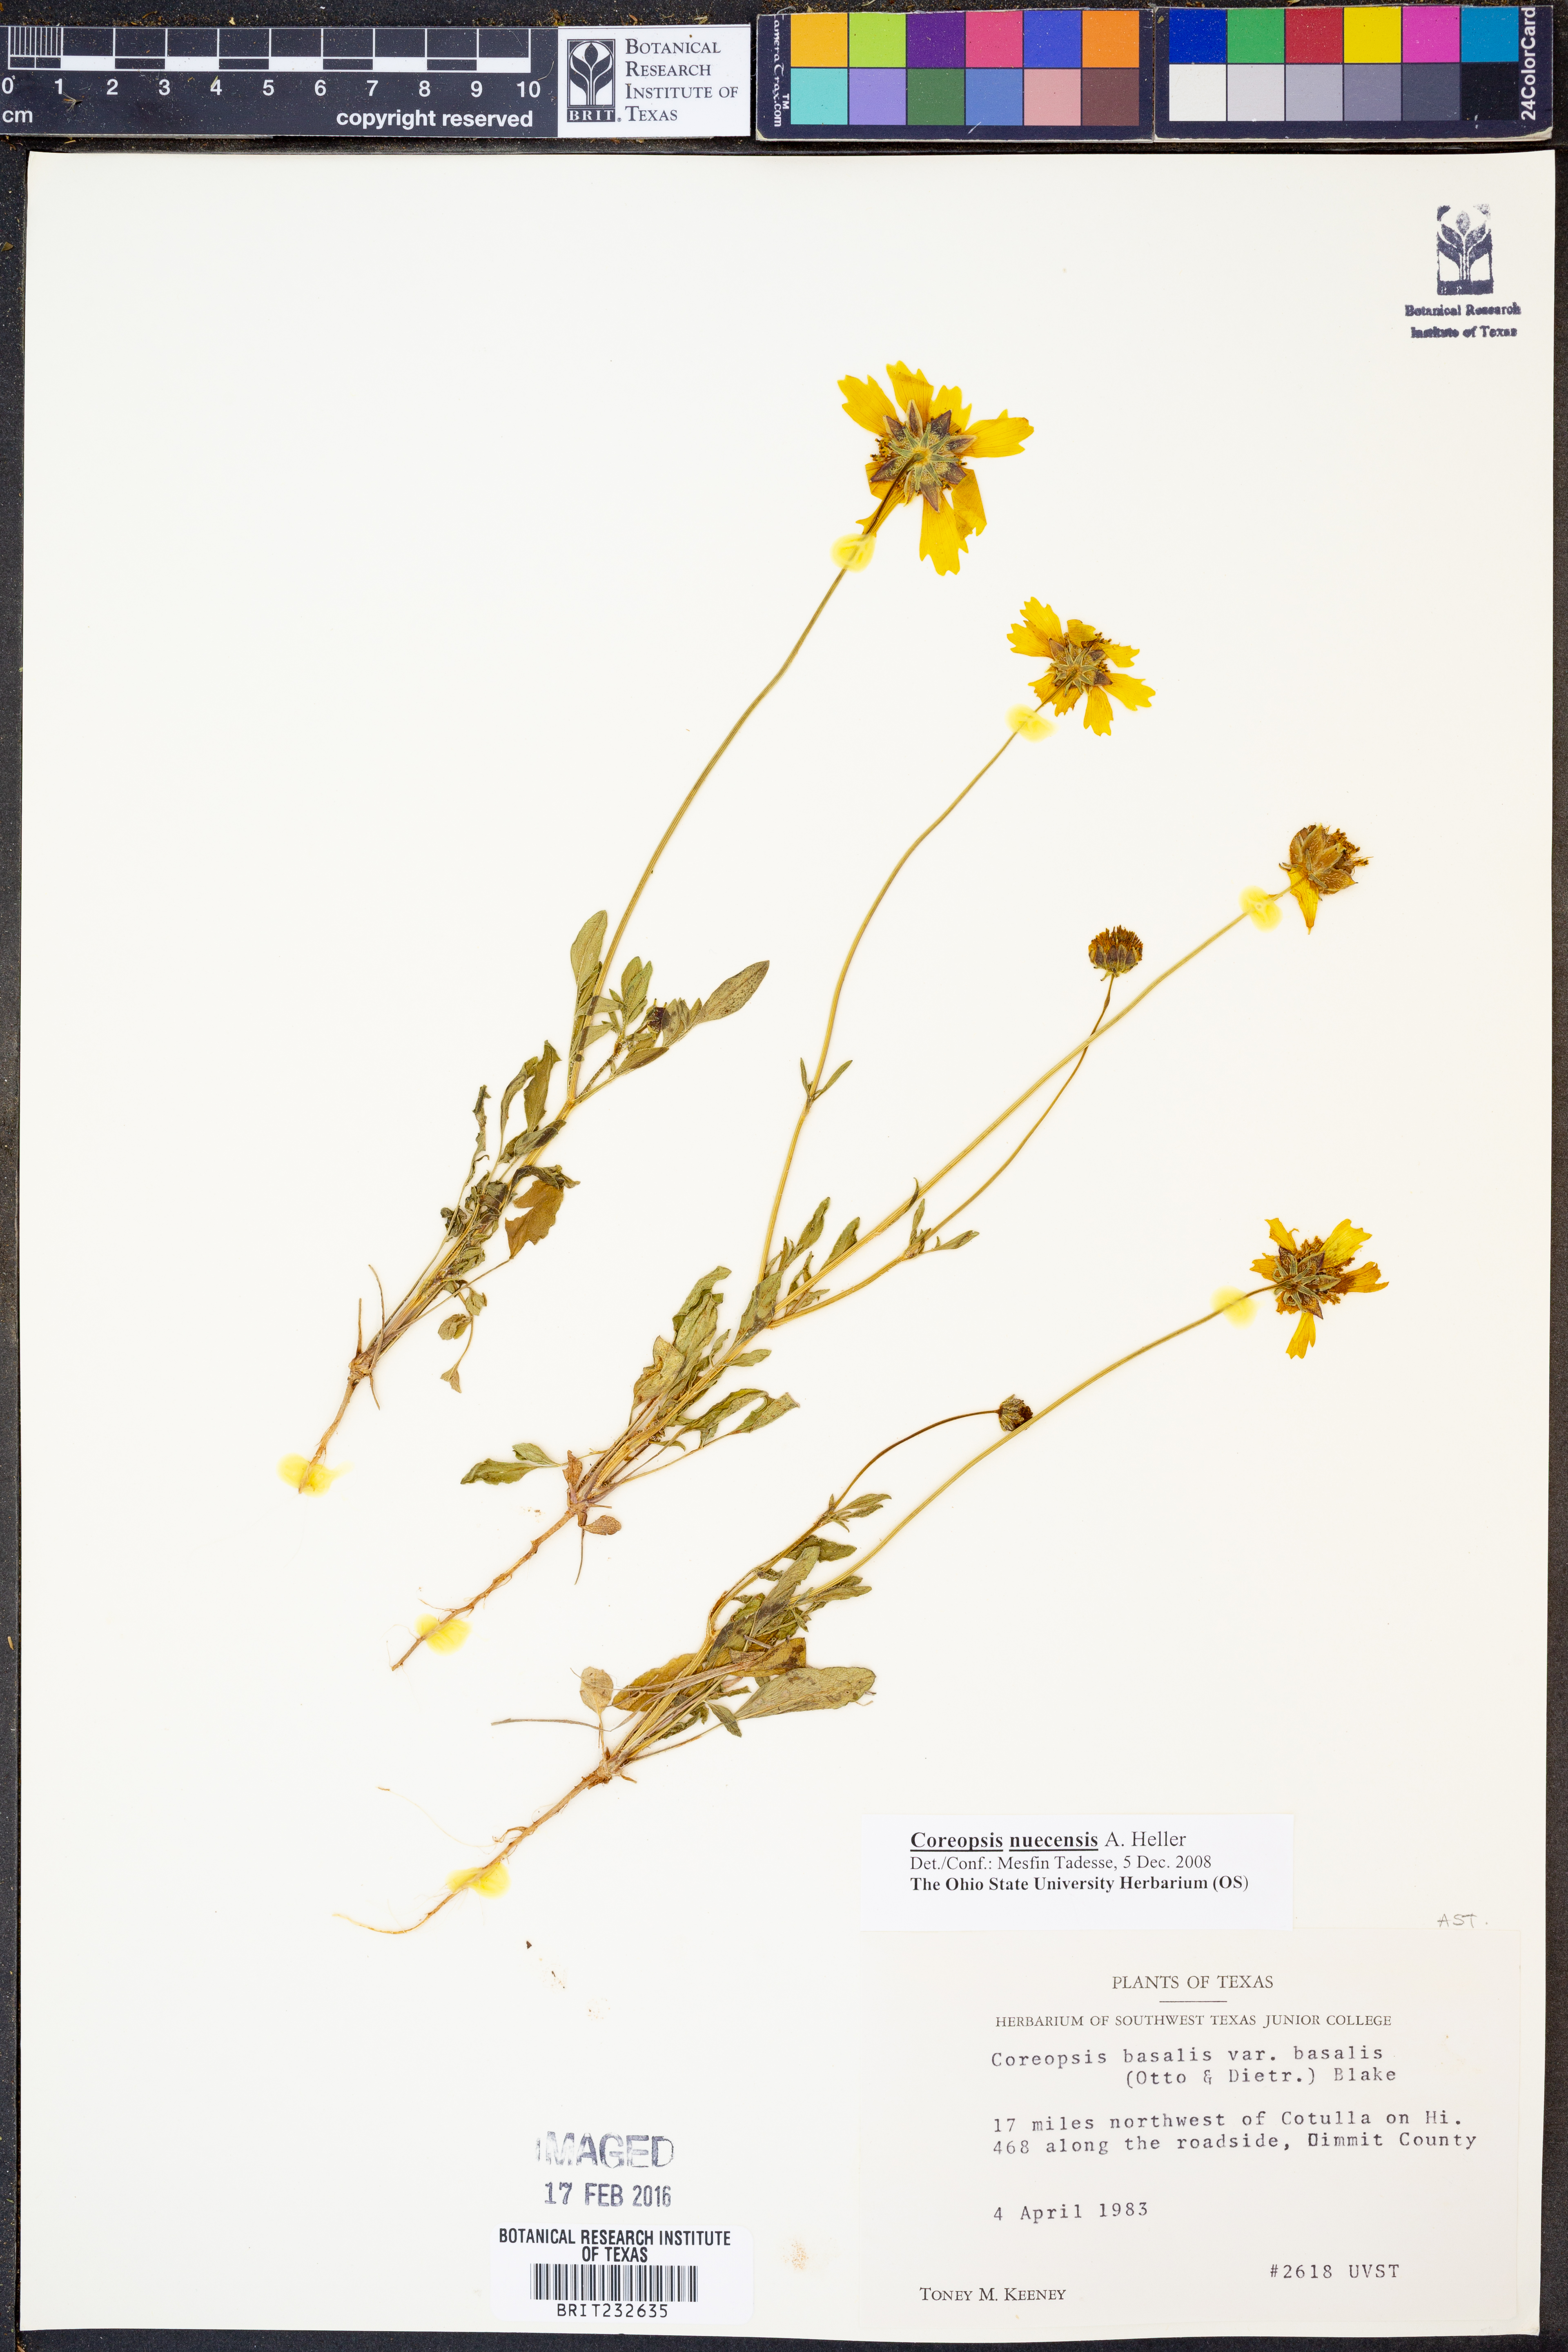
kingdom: Plantae
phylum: Tracheophyta
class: Magnoliopsida
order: Asterales
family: Asteraceae
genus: Coreopsis
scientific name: Coreopsis nuecensis
